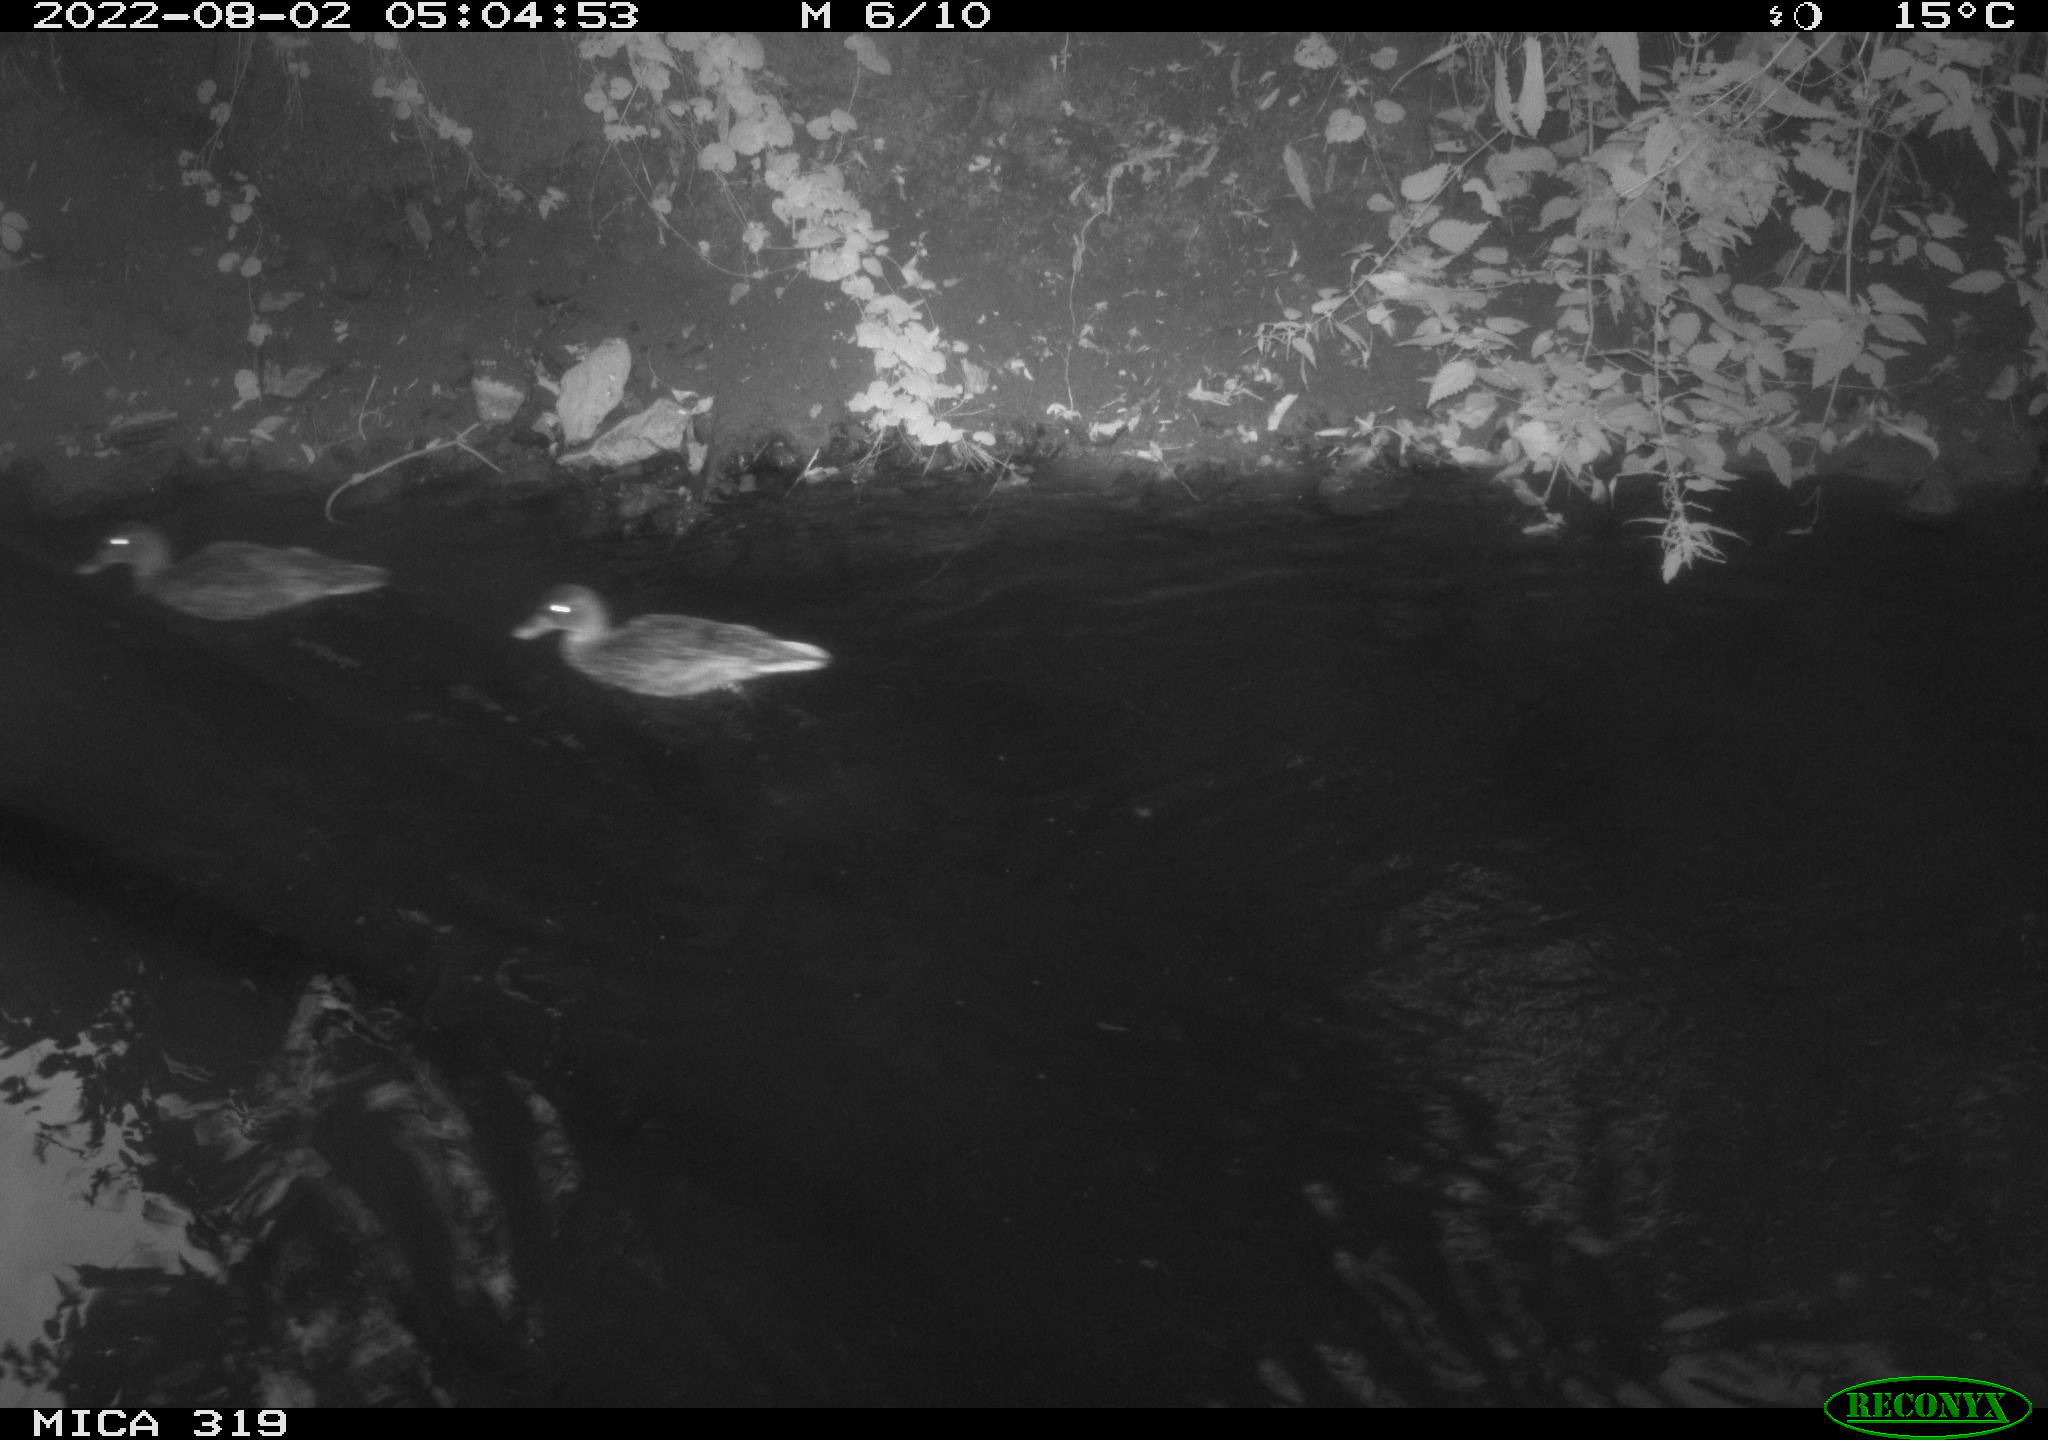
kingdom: Animalia
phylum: Chordata
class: Aves
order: Anseriformes
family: Anatidae
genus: Anas
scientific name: Anas
